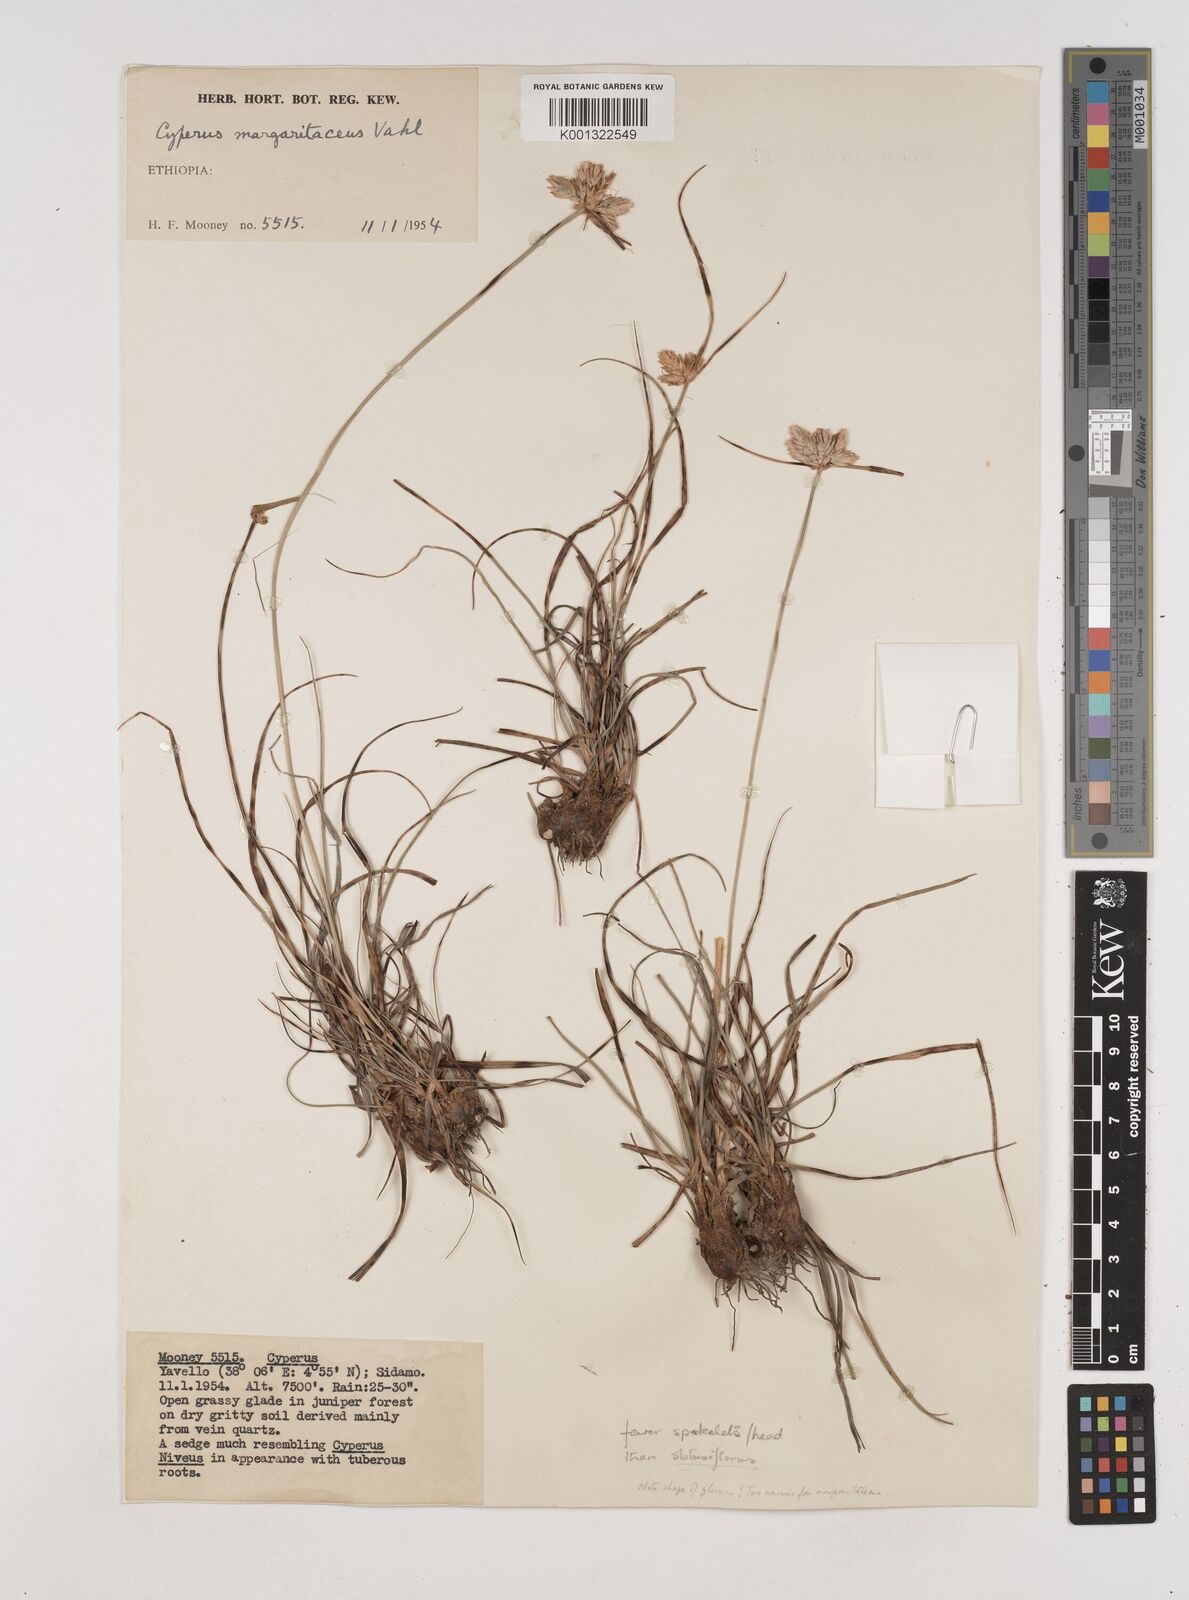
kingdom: Plantae
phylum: Tracheophyta
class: Liliopsida
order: Poales
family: Cyperaceae
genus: Cyperus
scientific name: Cyperus niveus
